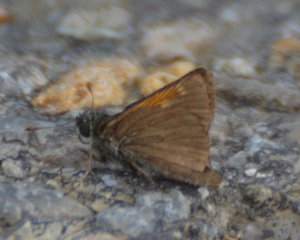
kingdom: Animalia
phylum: Arthropoda
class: Insecta
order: Lepidoptera
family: Hesperiidae
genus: Polites
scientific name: Polites themistocles
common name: Tawny-edged Skipper
